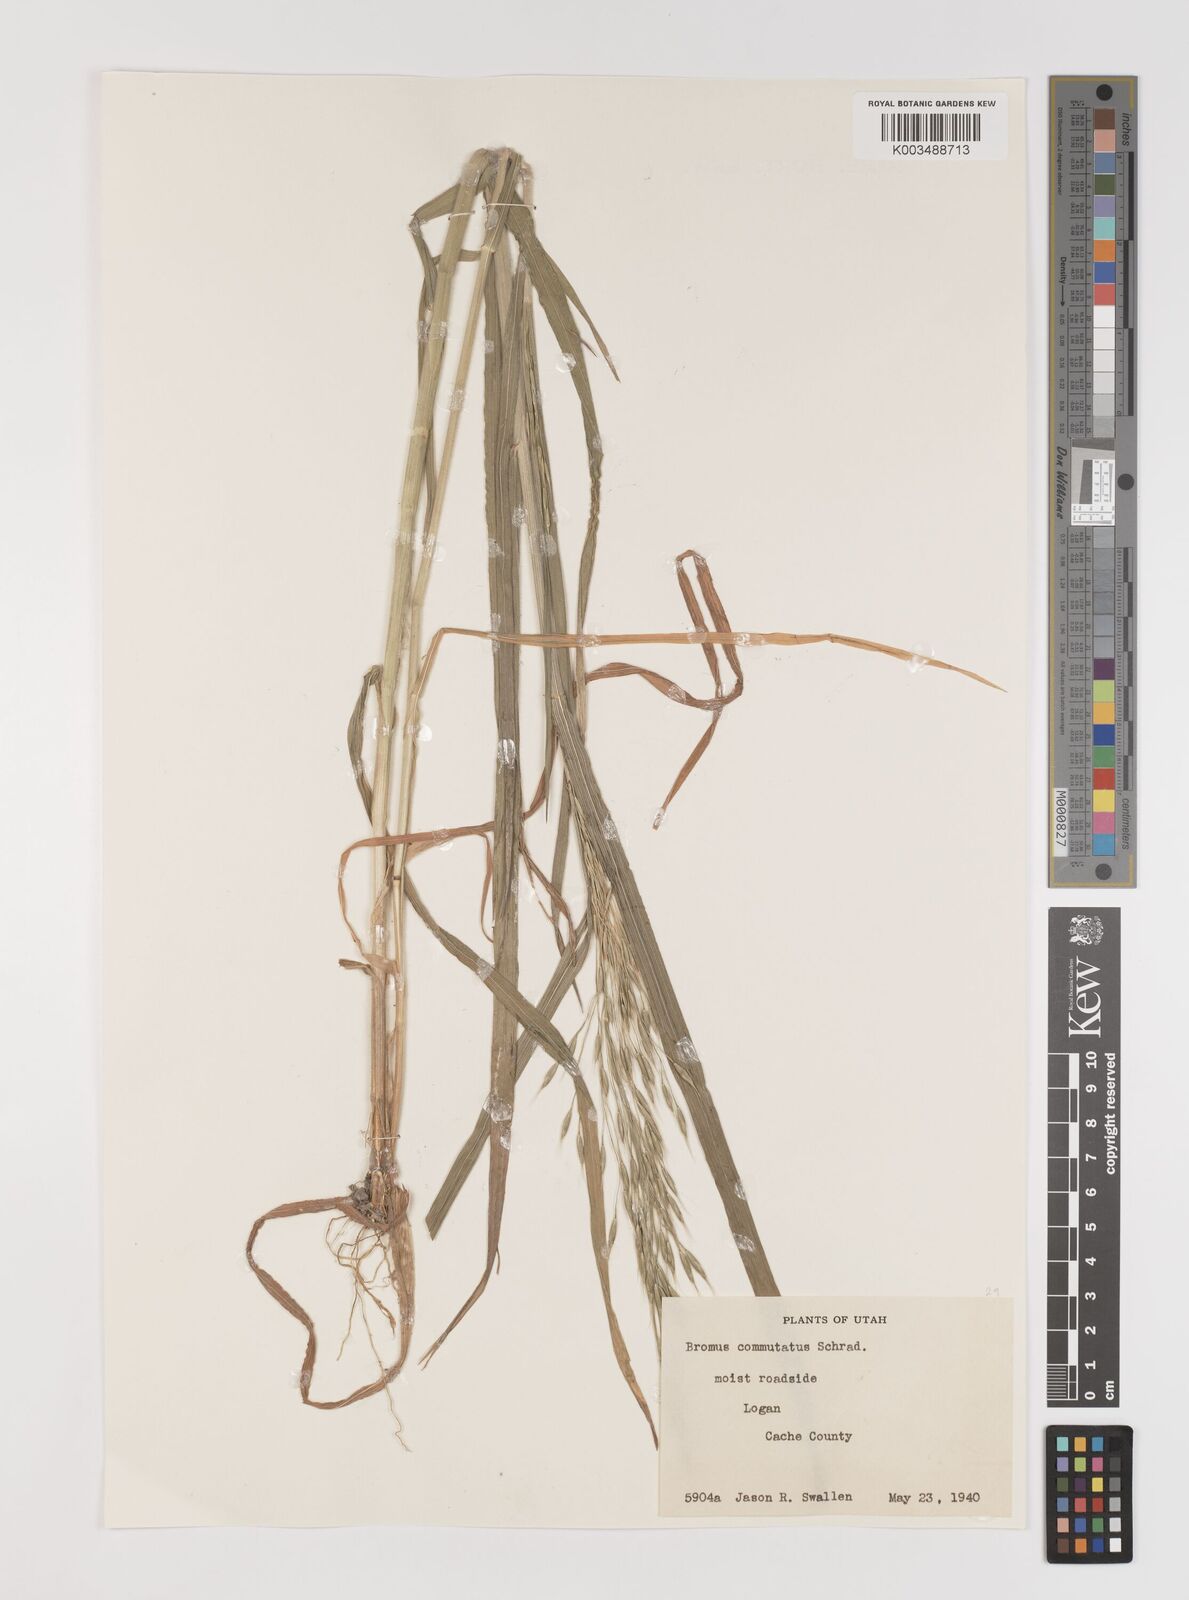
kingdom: Plantae
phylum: Tracheophyta
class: Liliopsida
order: Poales
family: Poaceae
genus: Bromus
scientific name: Bromus racemosus
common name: Bald brome
